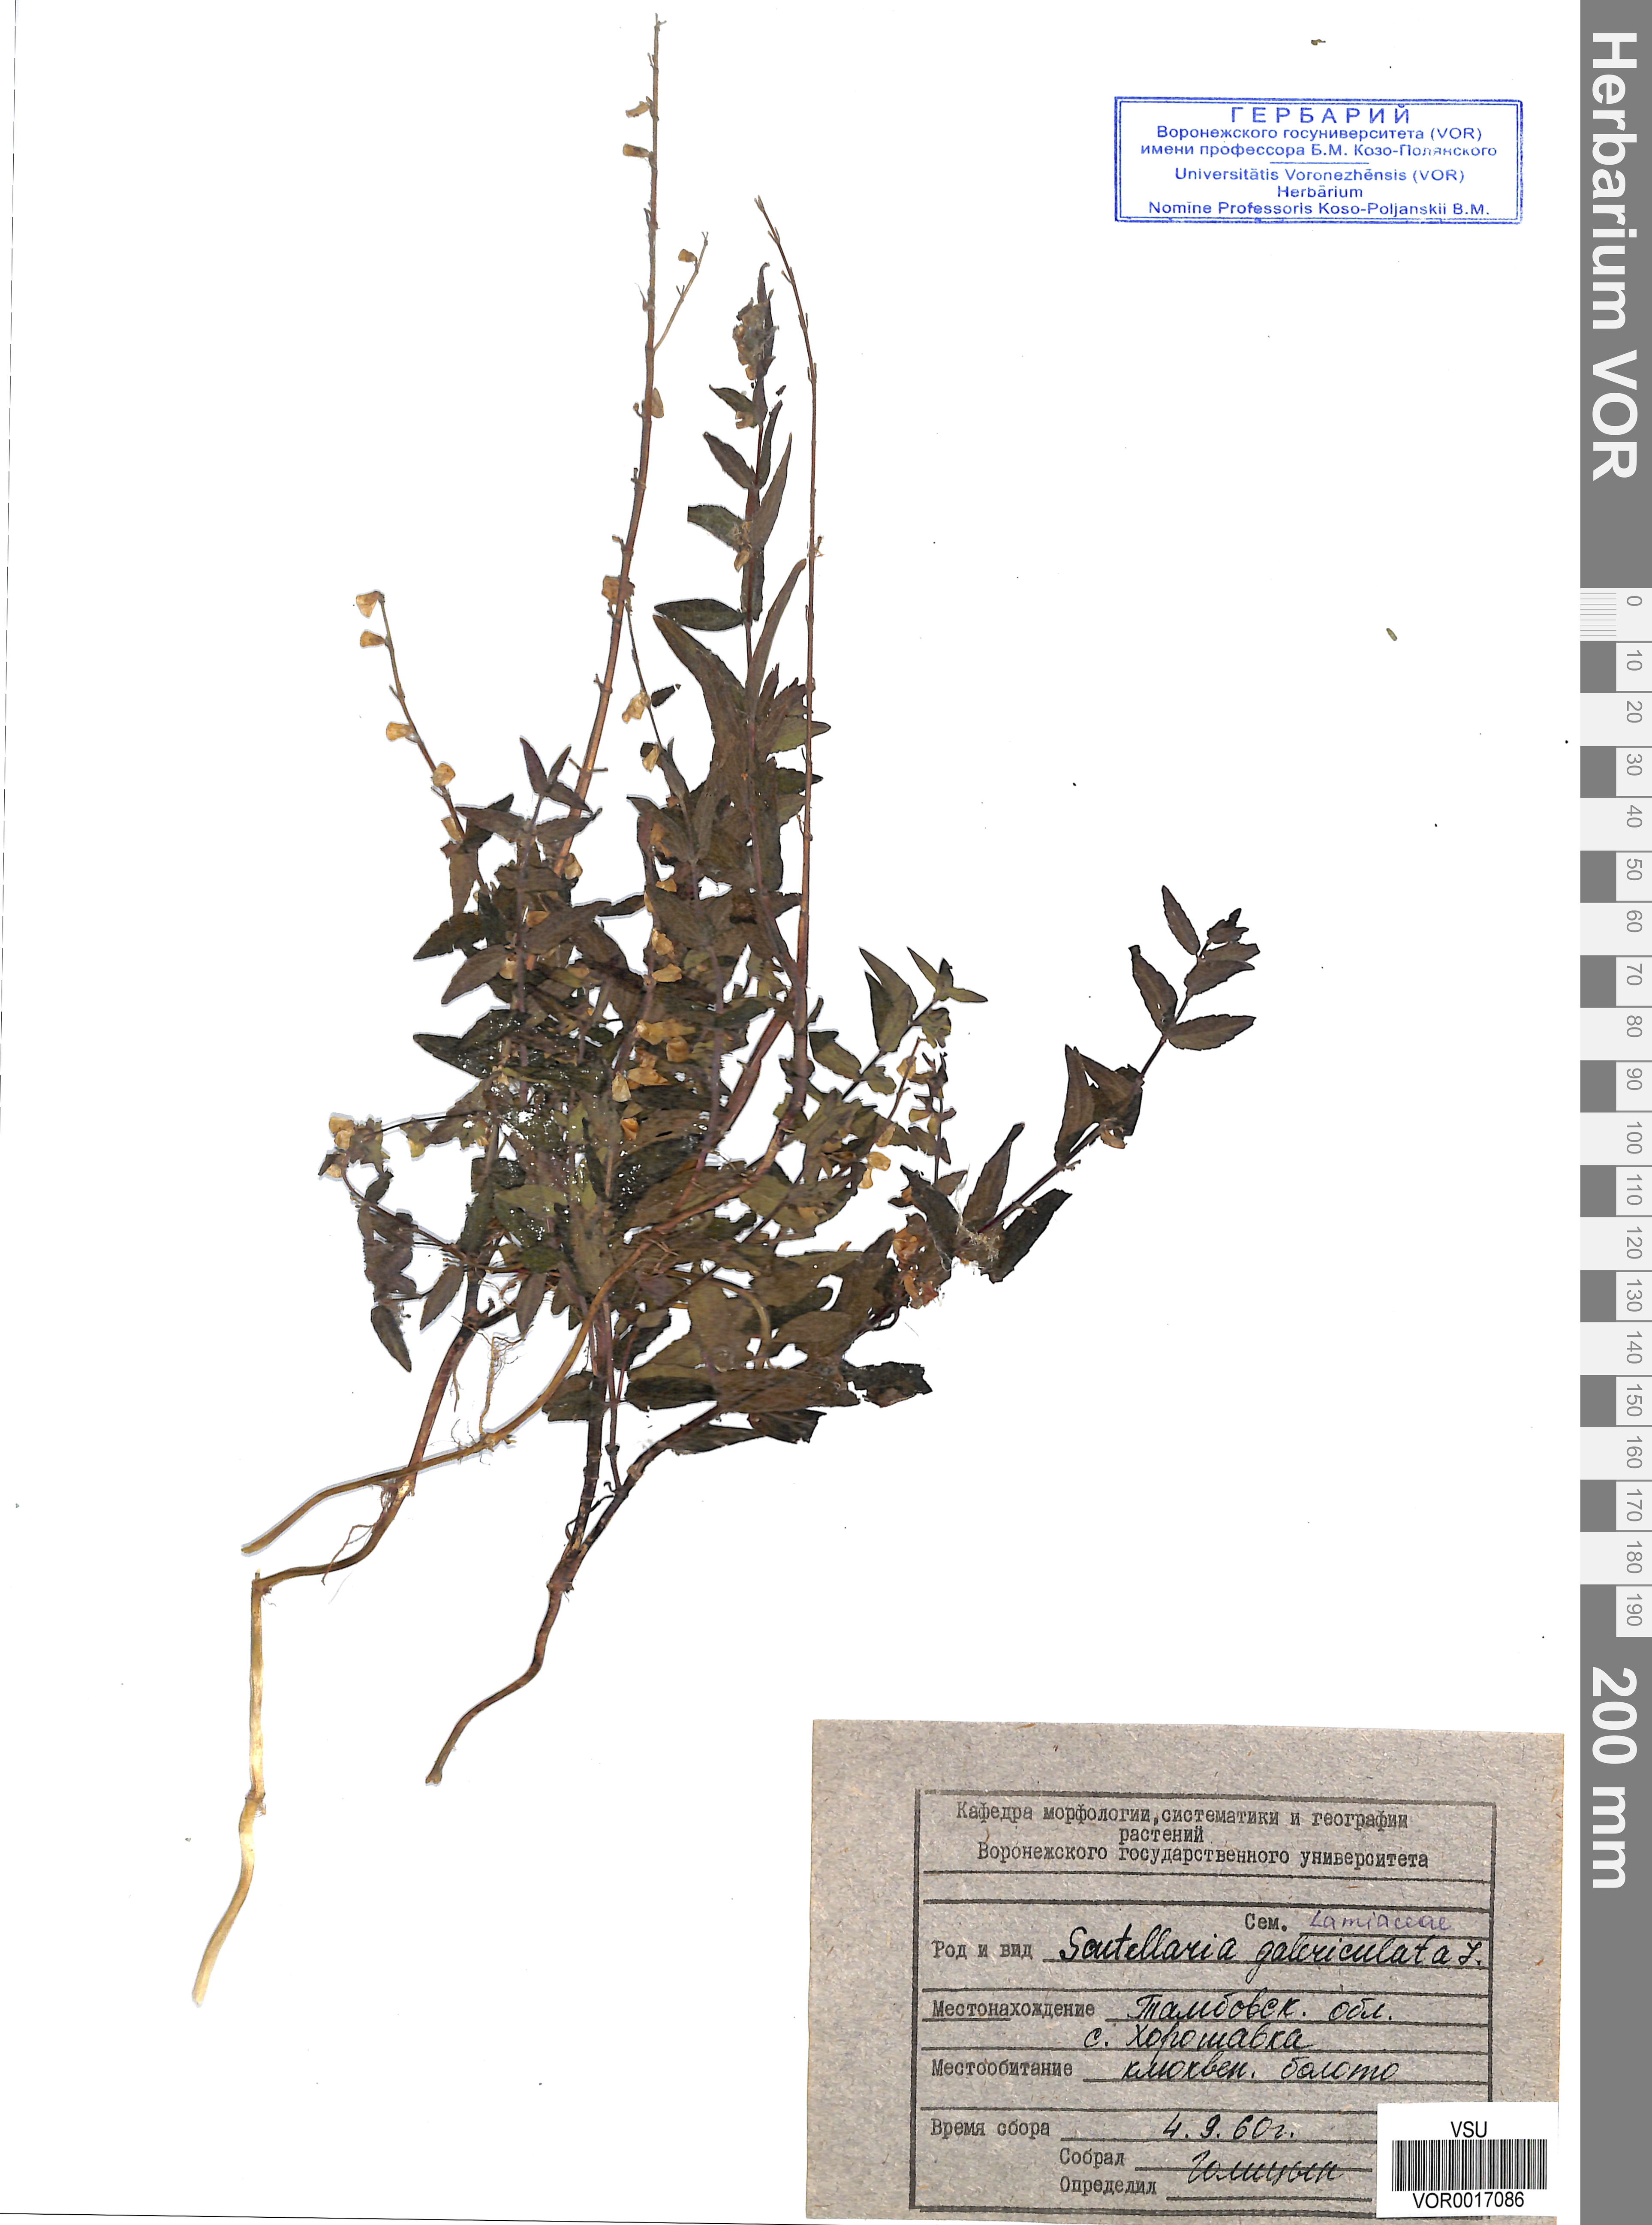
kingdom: Plantae
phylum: Tracheophyta
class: Magnoliopsida
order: Lamiales
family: Lamiaceae
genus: Scutellaria
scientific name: Scutellaria galericulata
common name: Skullcap
